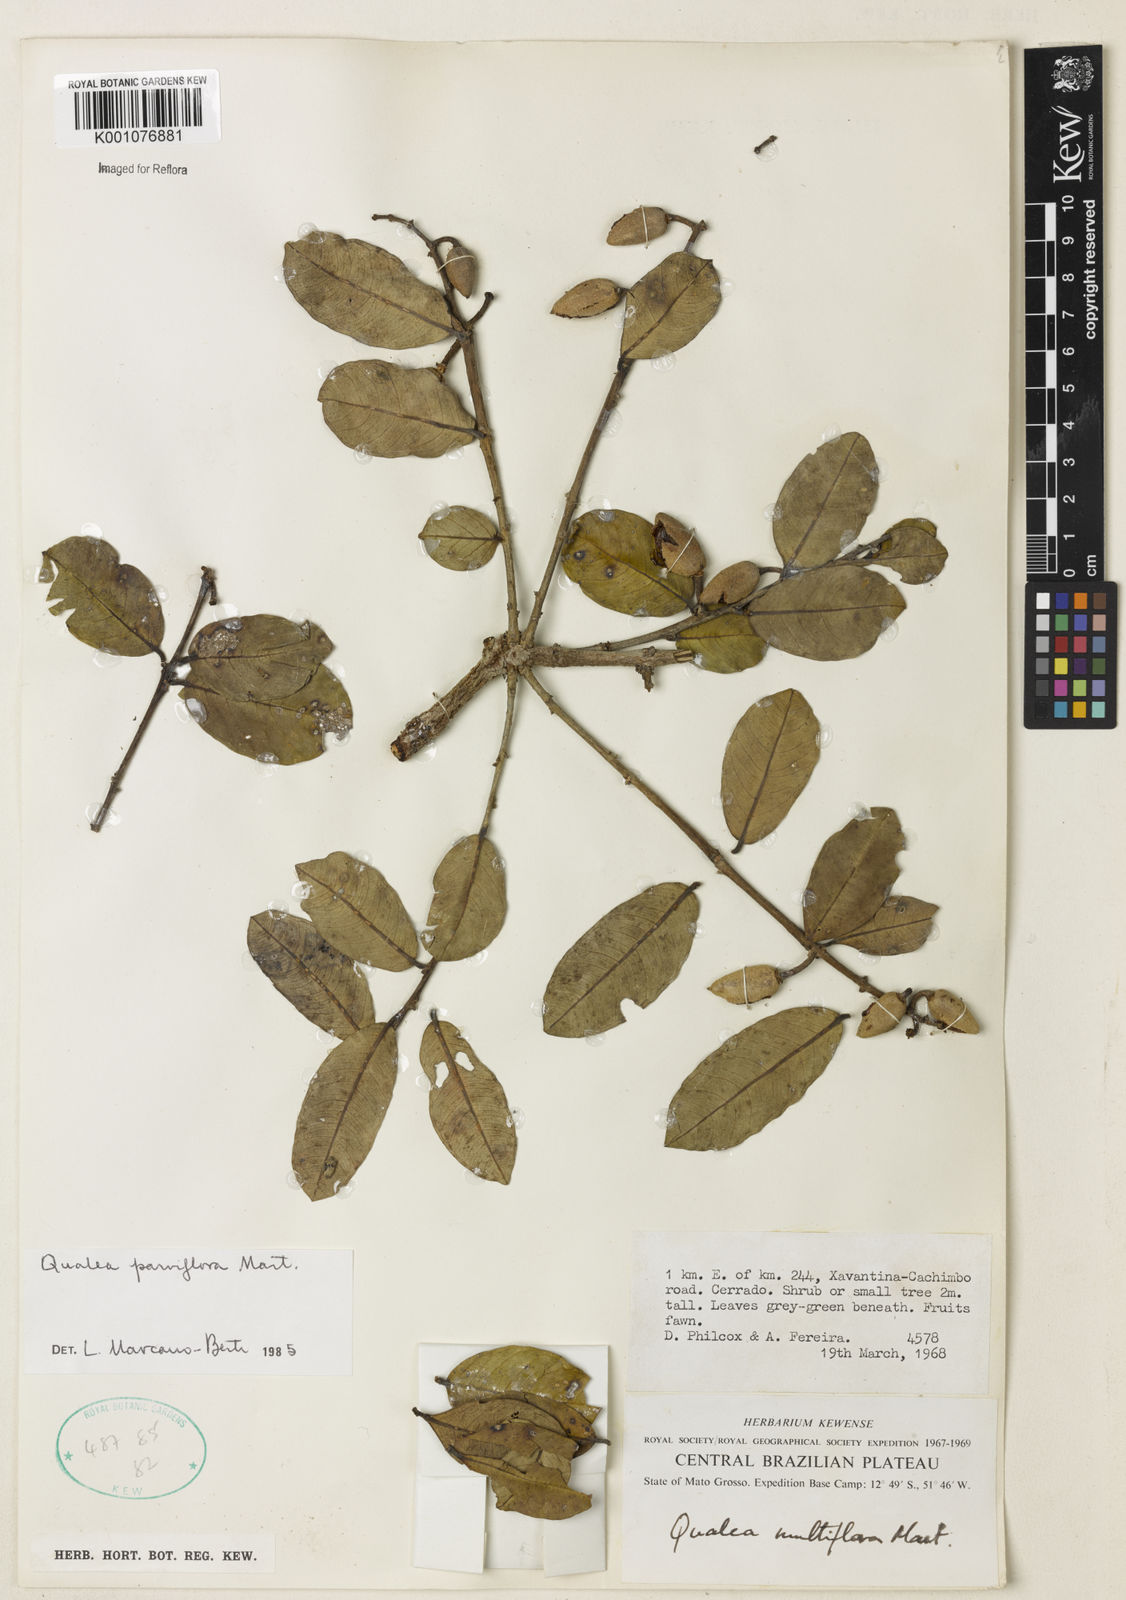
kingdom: Plantae
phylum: Tracheophyta
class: Magnoliopsida
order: Myrtales
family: Vochysiaceae
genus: Qualea
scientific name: Qualea parviflora
